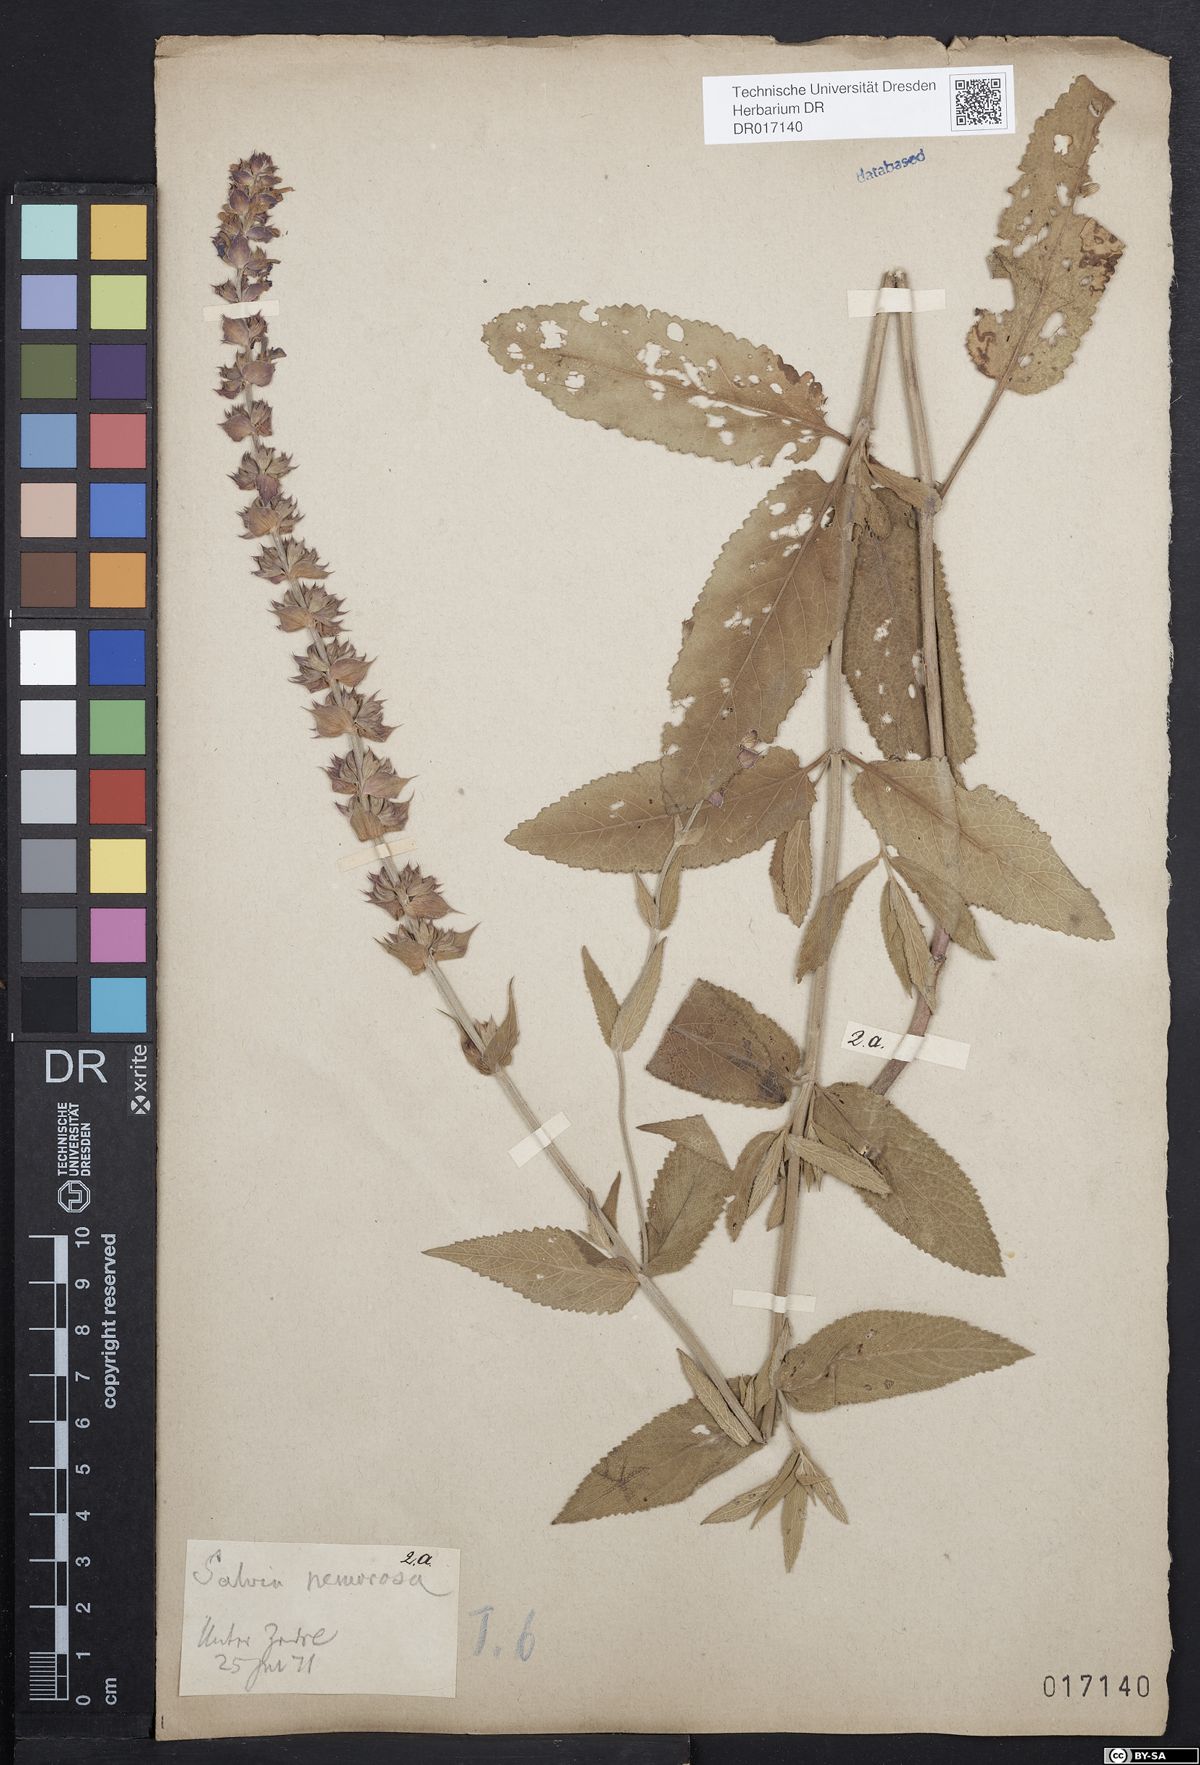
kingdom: Plantae
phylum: Tracheophyta
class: Magnoliopsida
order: Lamiales
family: Lamiaceae
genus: Salvia
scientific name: Salvia nemorosa
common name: Balkan clary
